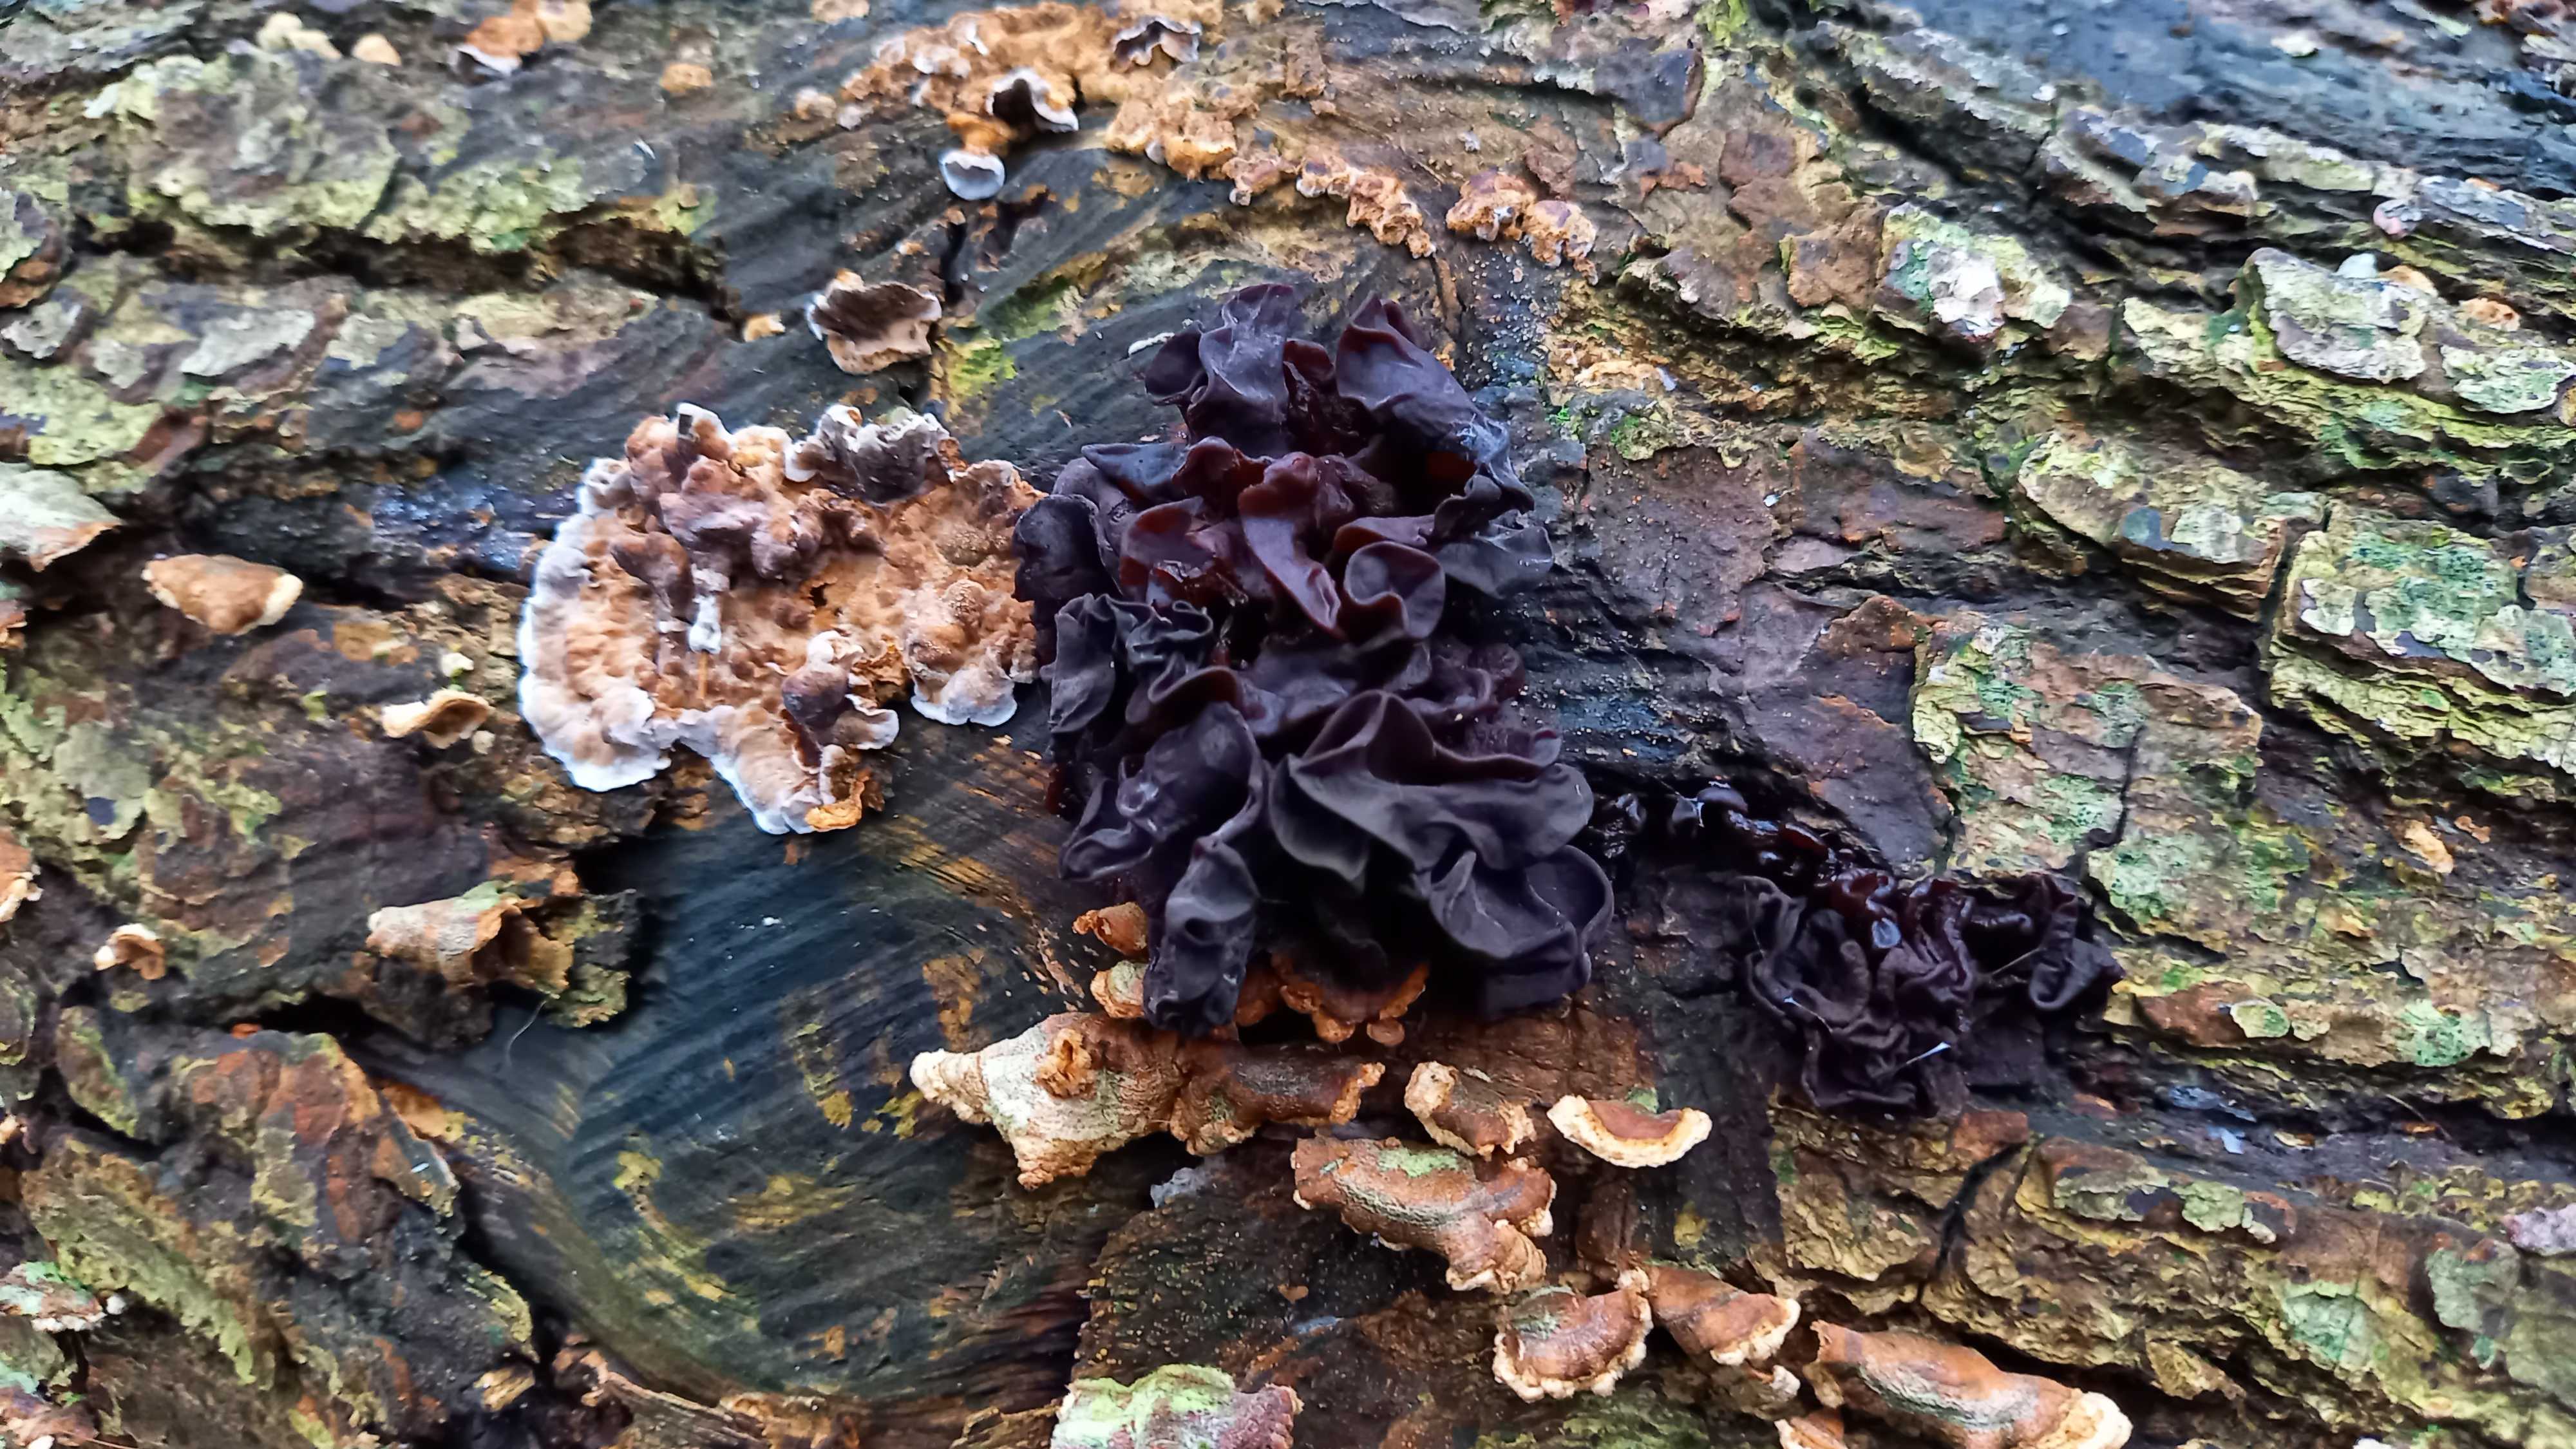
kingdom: Fungi
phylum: Basidiomycota
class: Tremellomycetes
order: Tremellales
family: Tremellaceae
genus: Phaeotremella
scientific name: Phaeotremella frondosa
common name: kæmpe-bævresvamp
